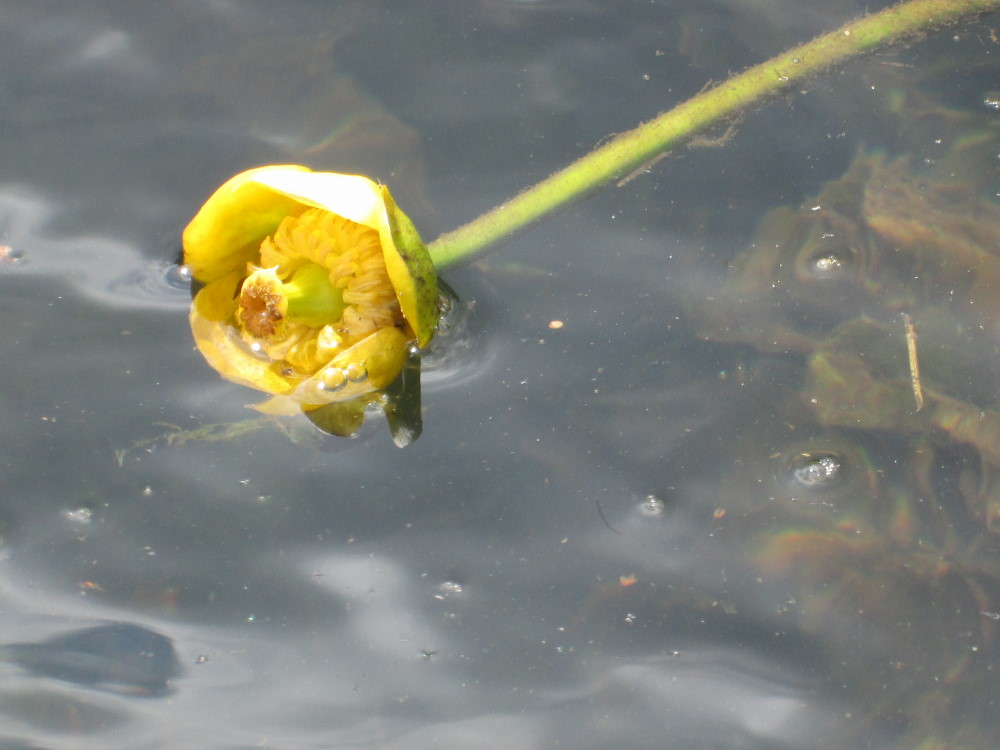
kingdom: Plantae
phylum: Tracheophyta
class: Magnoliopsida
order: Nymphaeales
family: Nymphaeaceae
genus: Nuphar
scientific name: Nuphar lutea
